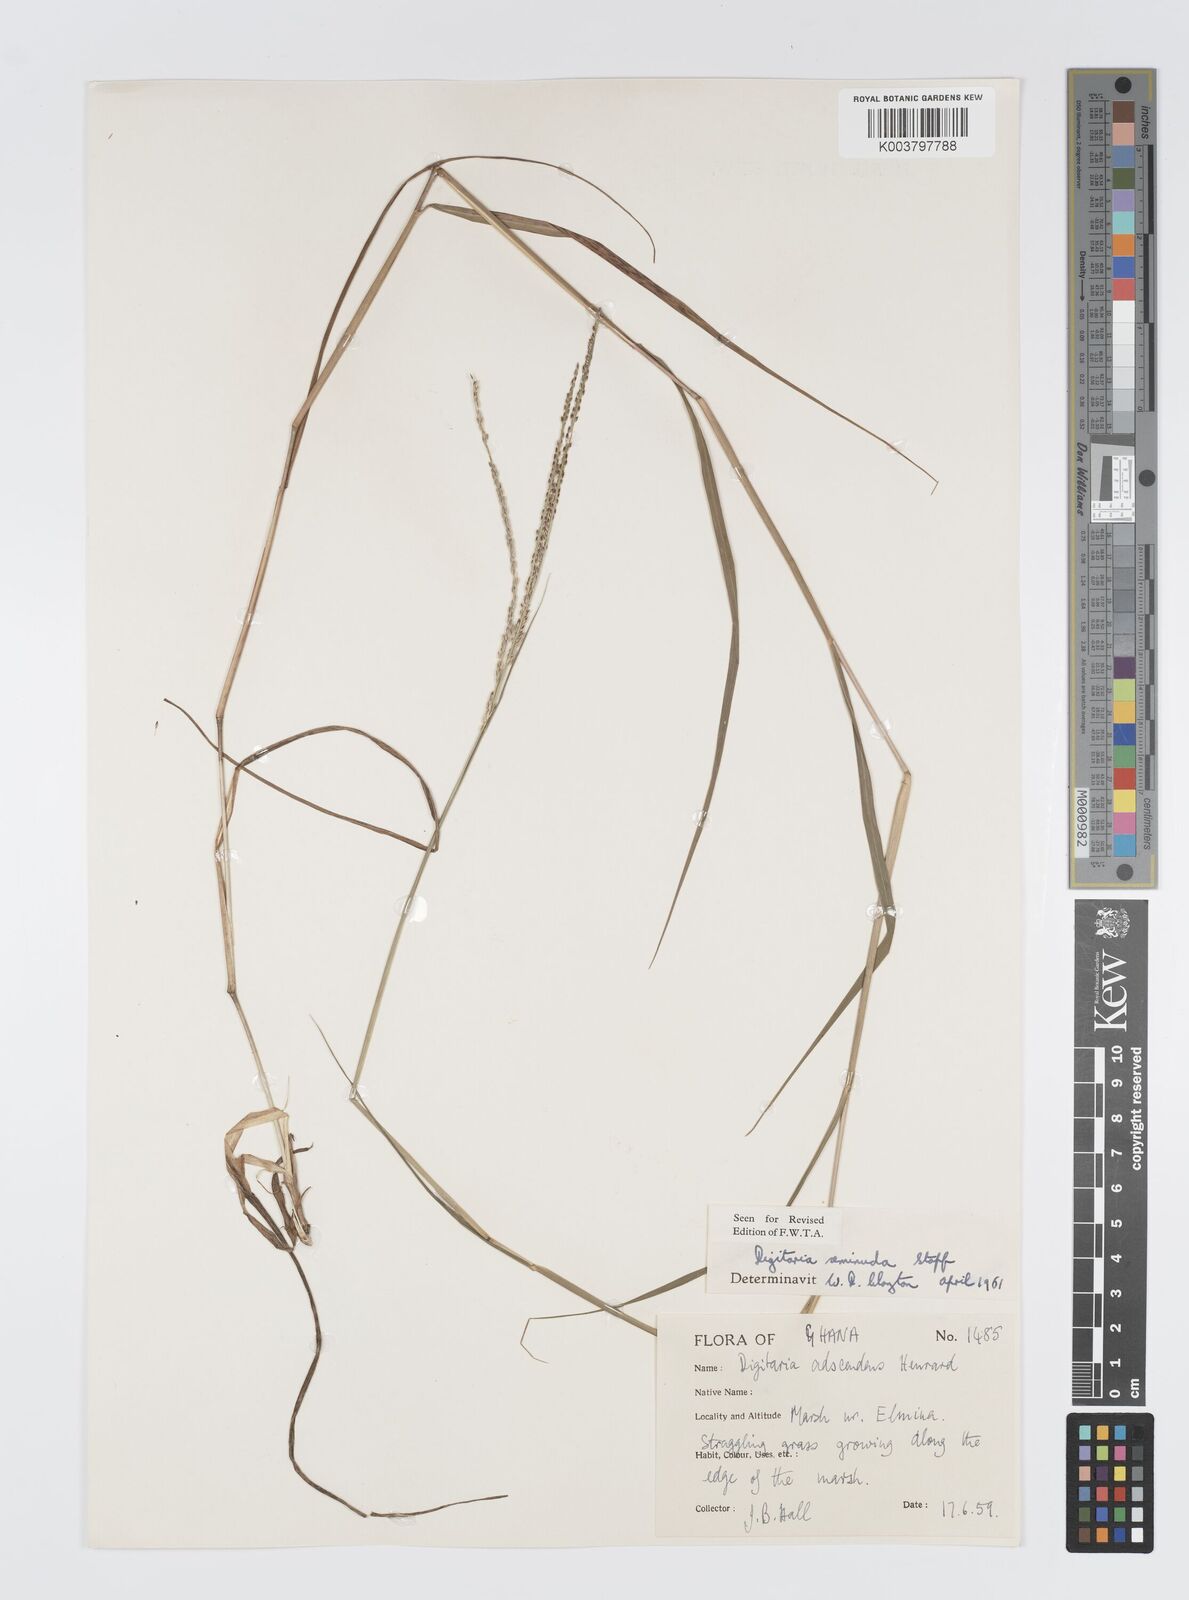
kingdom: Plantae
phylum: Tracheophyta
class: Liliopsida
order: Poales
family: Poaceae
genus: Digitaria
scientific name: Digitaria atrofusca
